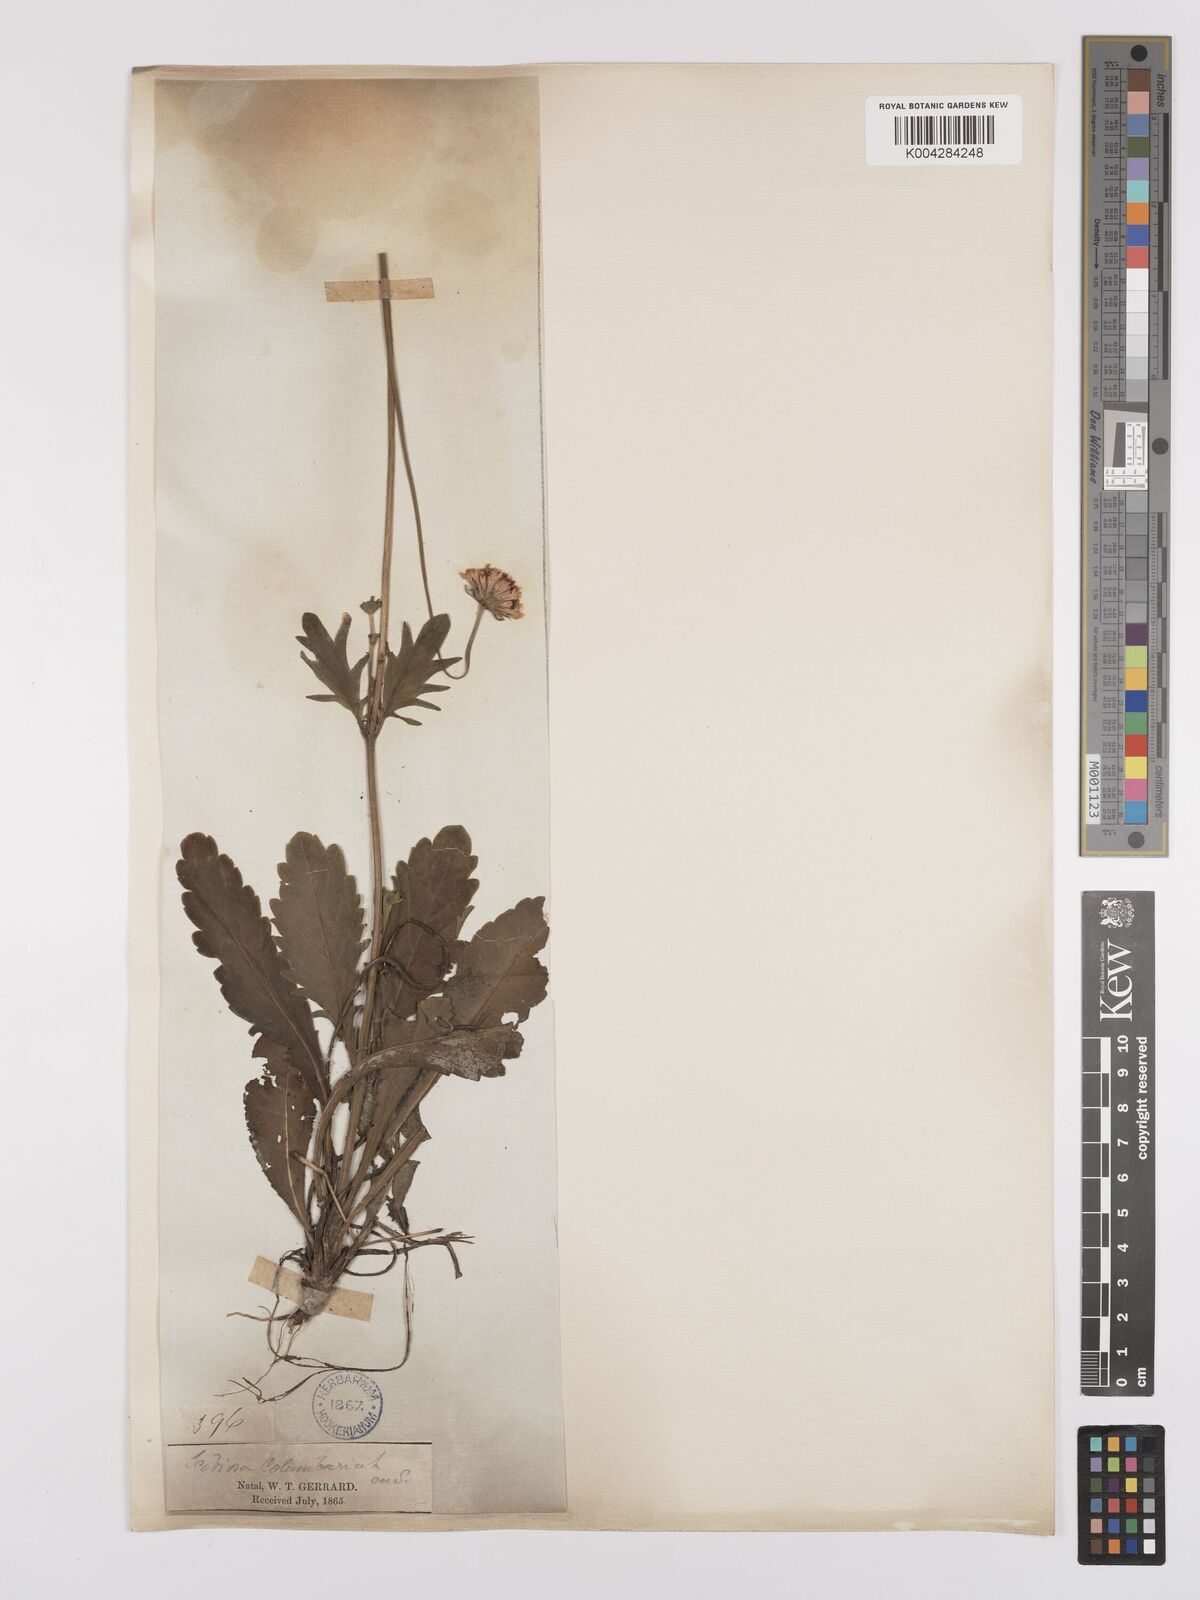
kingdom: Plantae
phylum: Tracheophyta
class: Magnoliopsida
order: Dipsacales
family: Caprifoliaceae
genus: Scabiosa
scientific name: Scabiosa columbaria
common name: Small scabious
